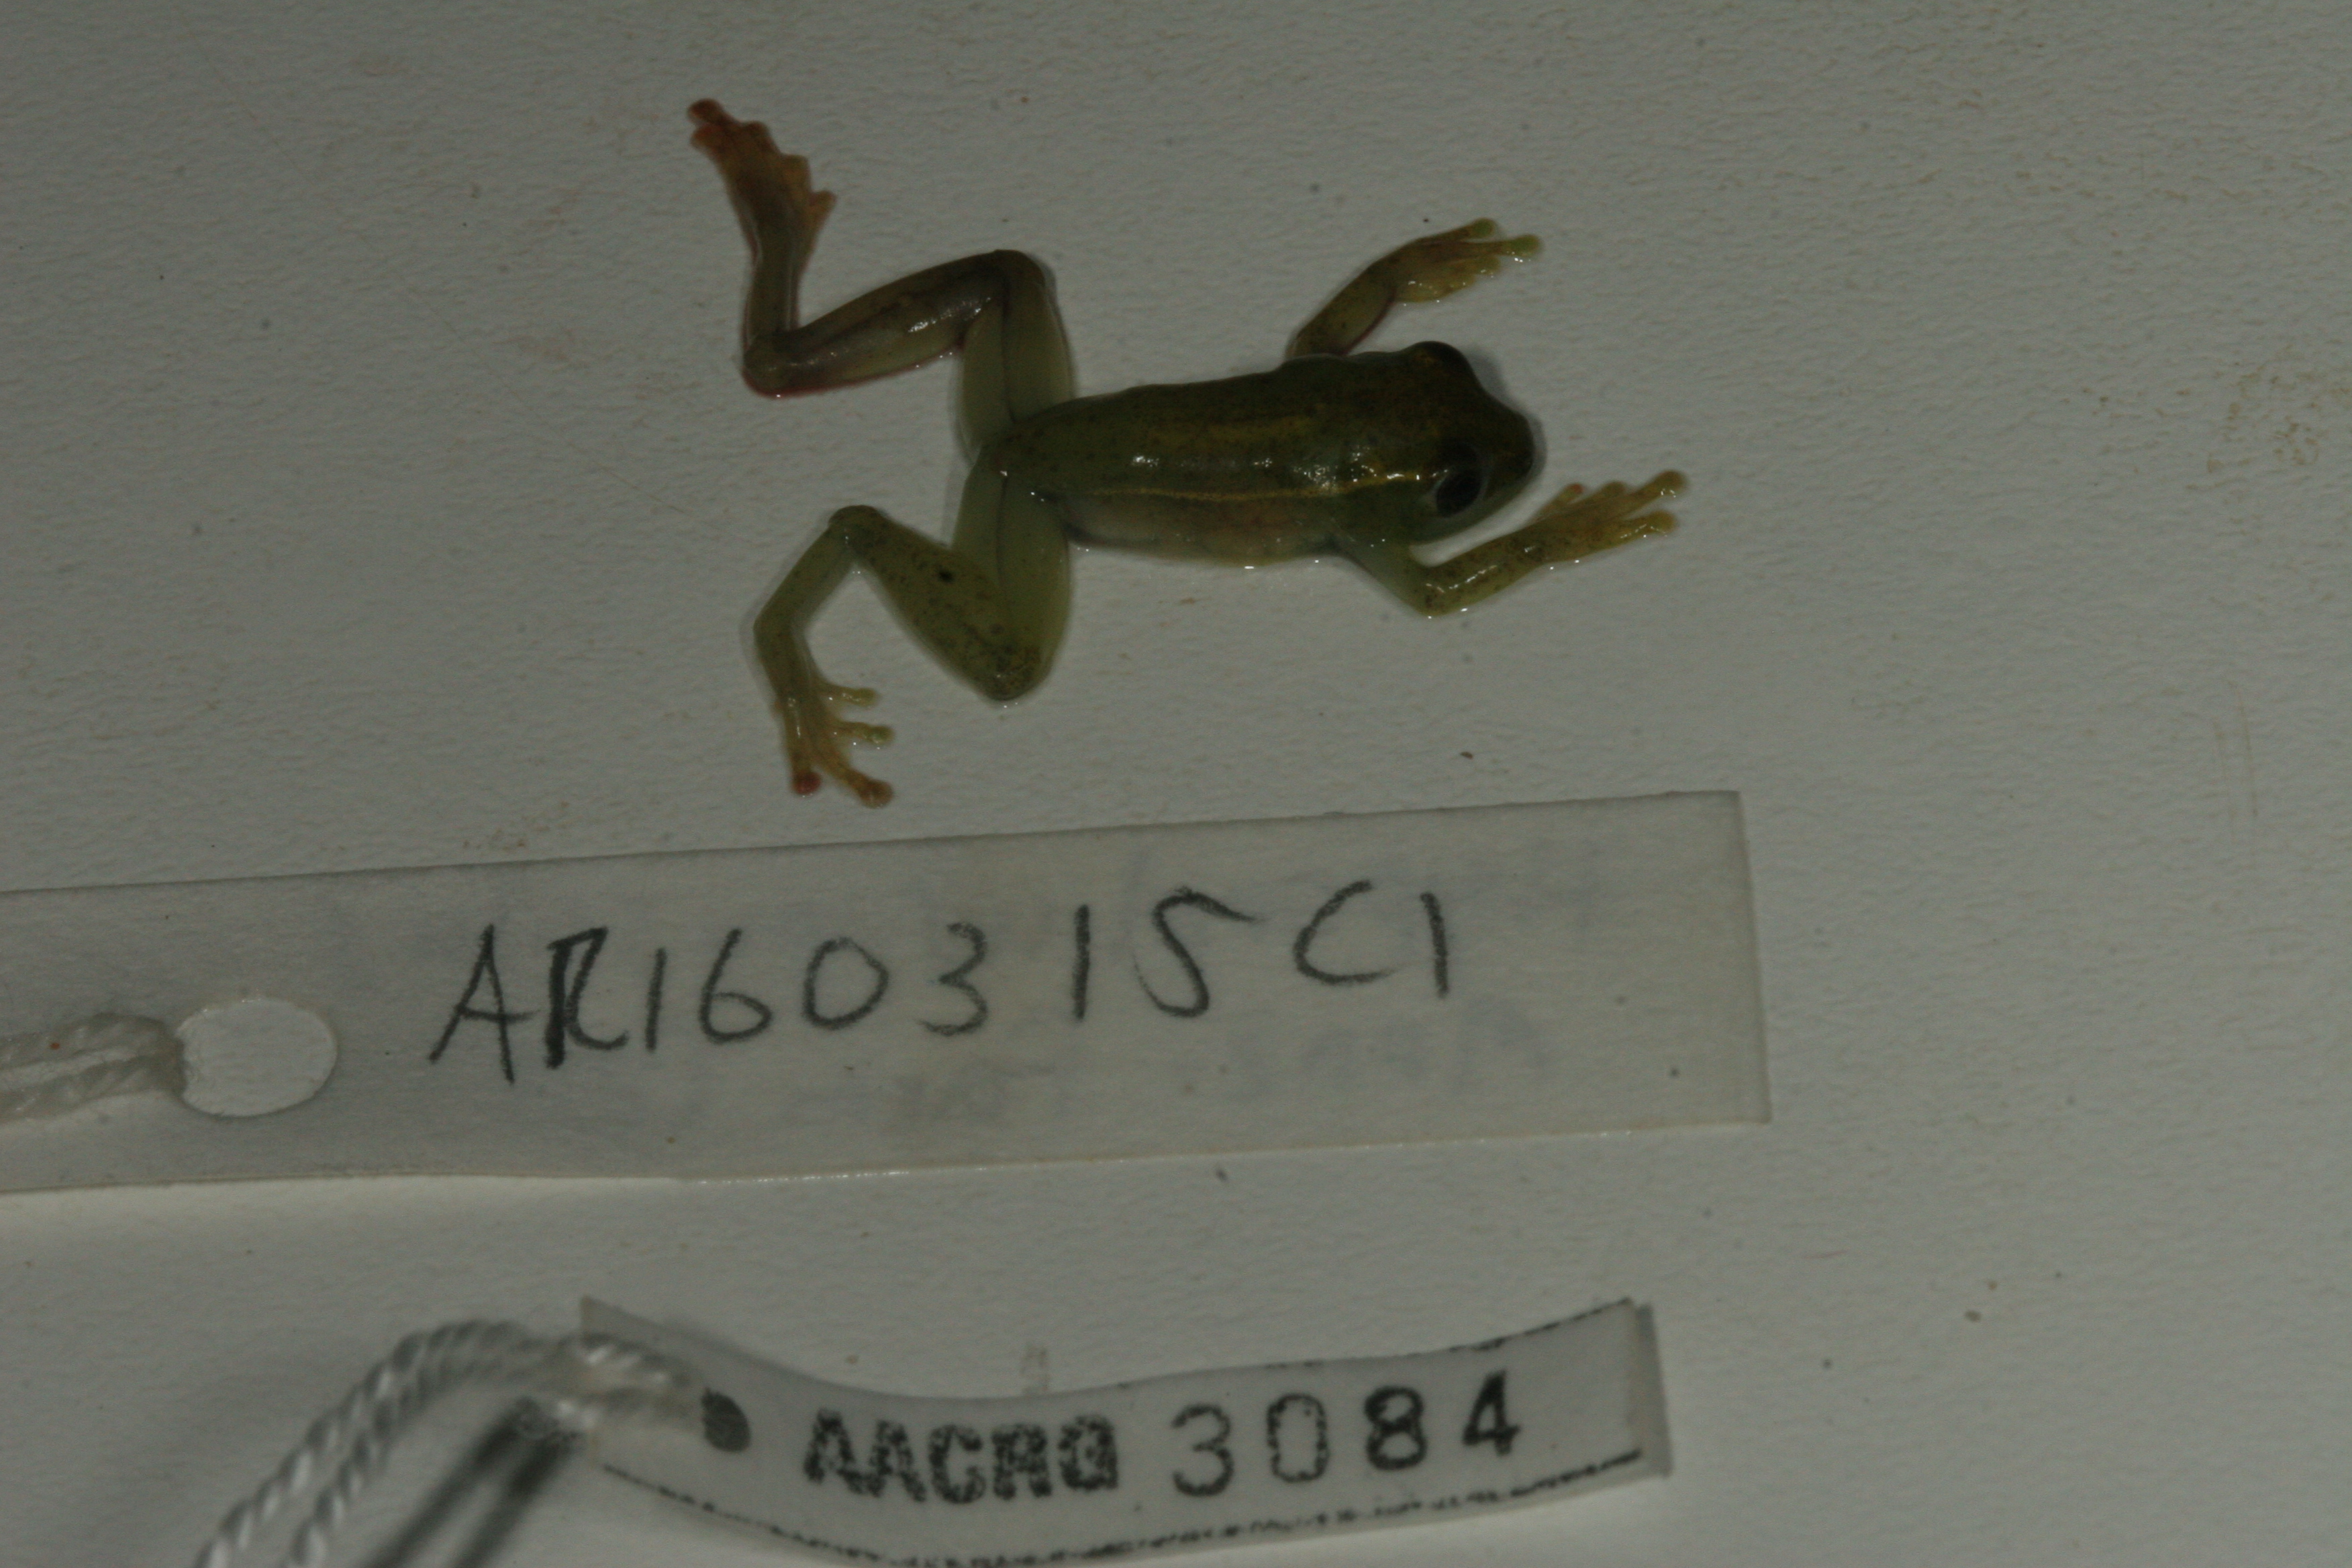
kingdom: Animalia
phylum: Chordata
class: Amphibia
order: Anura
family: Hyperoliidae
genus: Hyperolius
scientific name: Hyperolius pusillus
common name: Water lily reed frog
